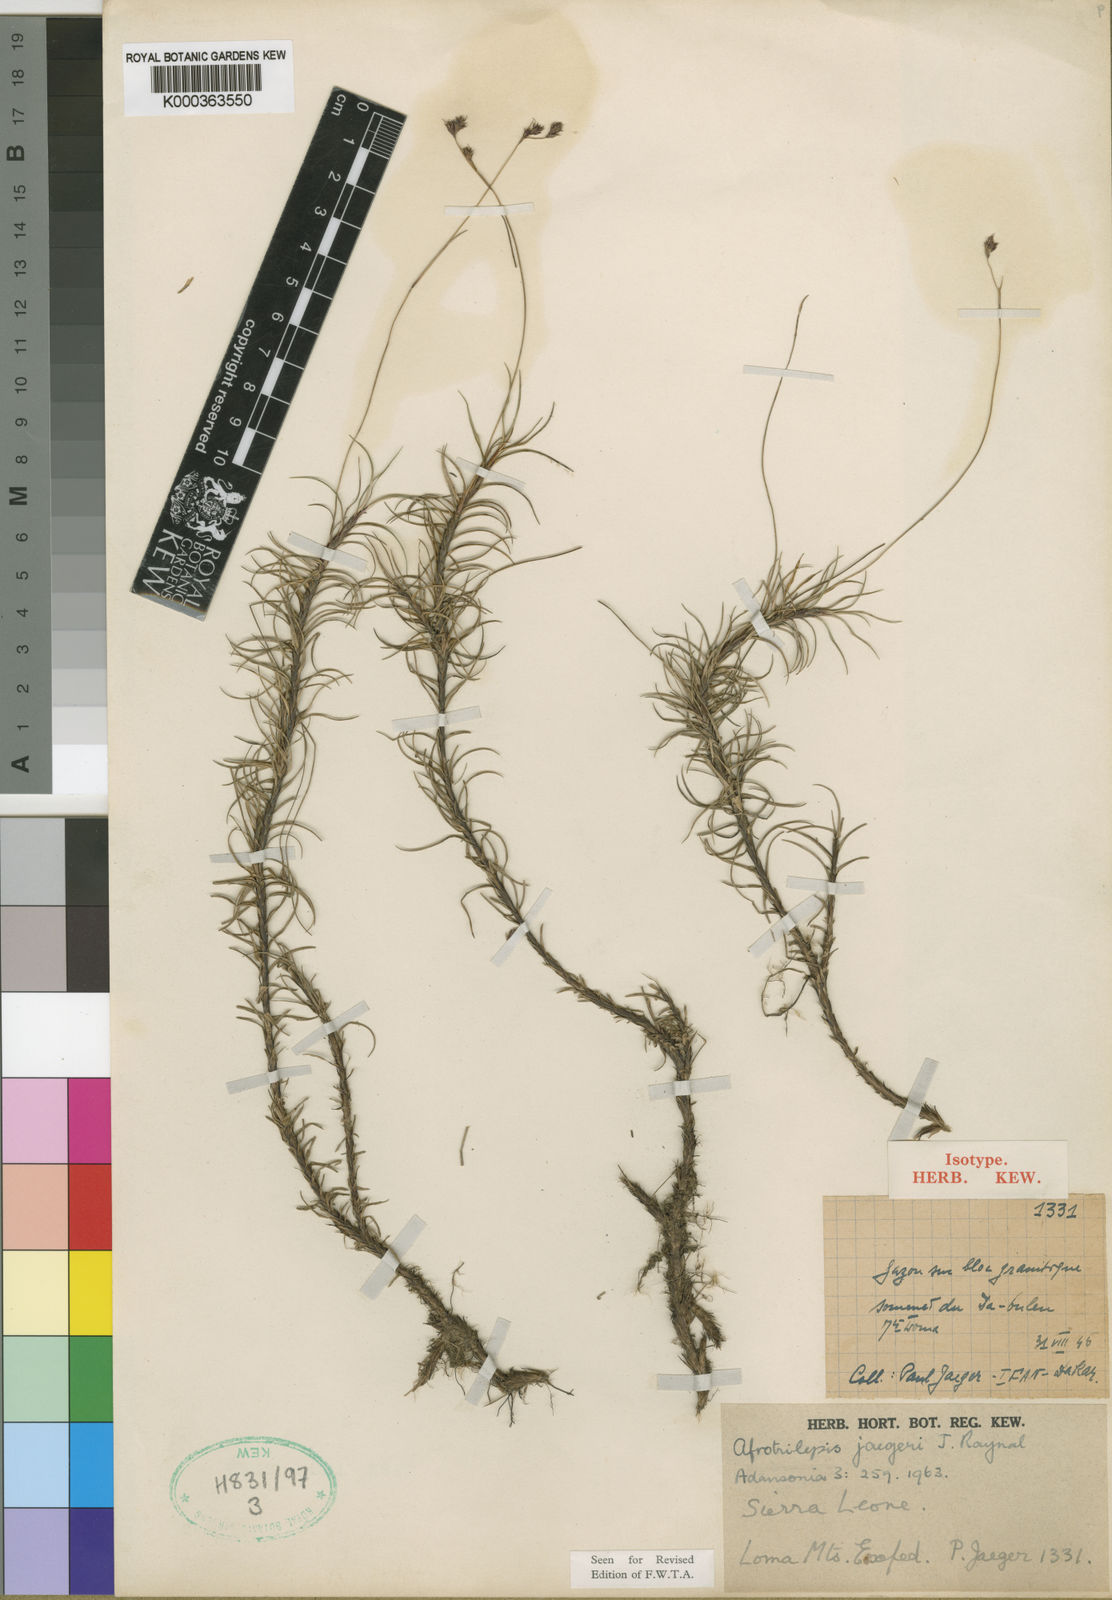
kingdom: Plantae
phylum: Tracheophyta
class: Liliopsida
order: Poales
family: Cyperaceae
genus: Afrotrilepis
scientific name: Afrotrilepis jaegeri
